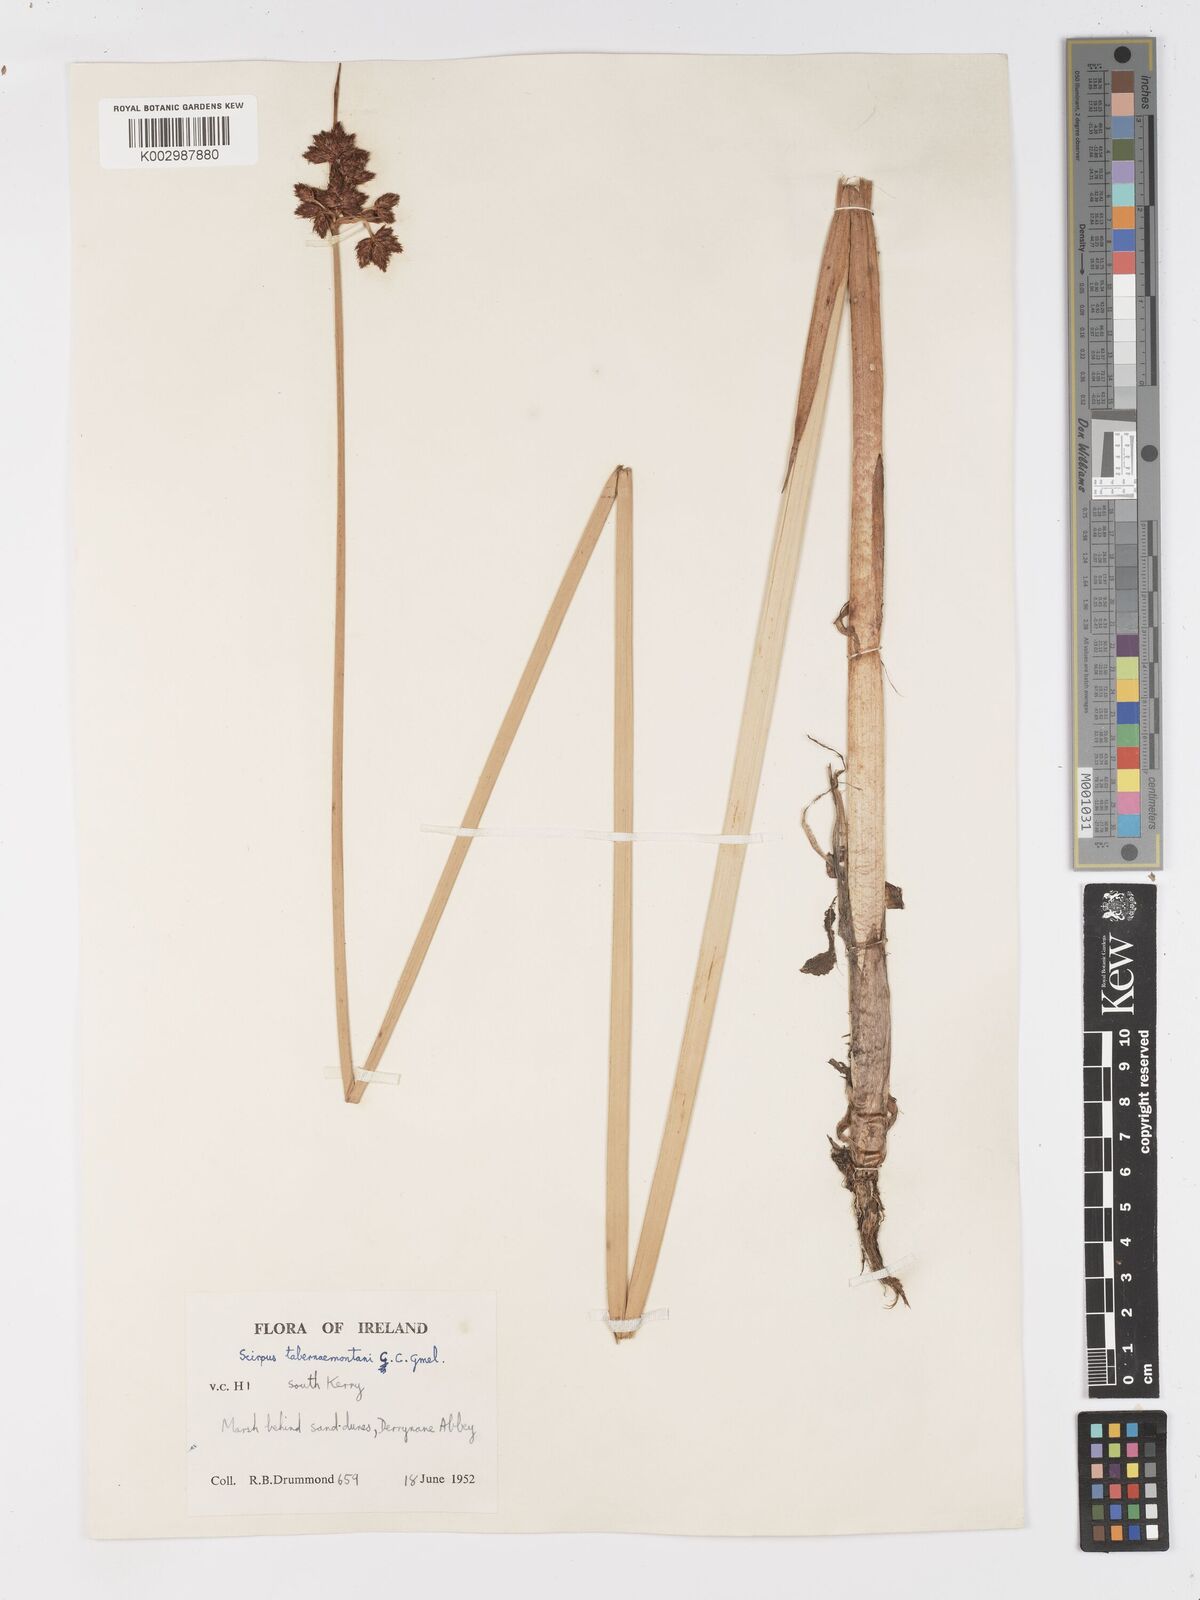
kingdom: Plantae
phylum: Tracheophyta
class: Liliopsida
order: Poales
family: Cyperaceae
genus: Schoenoplectus
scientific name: Schoenoplectus tabernaemontani
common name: Grey club-rush
